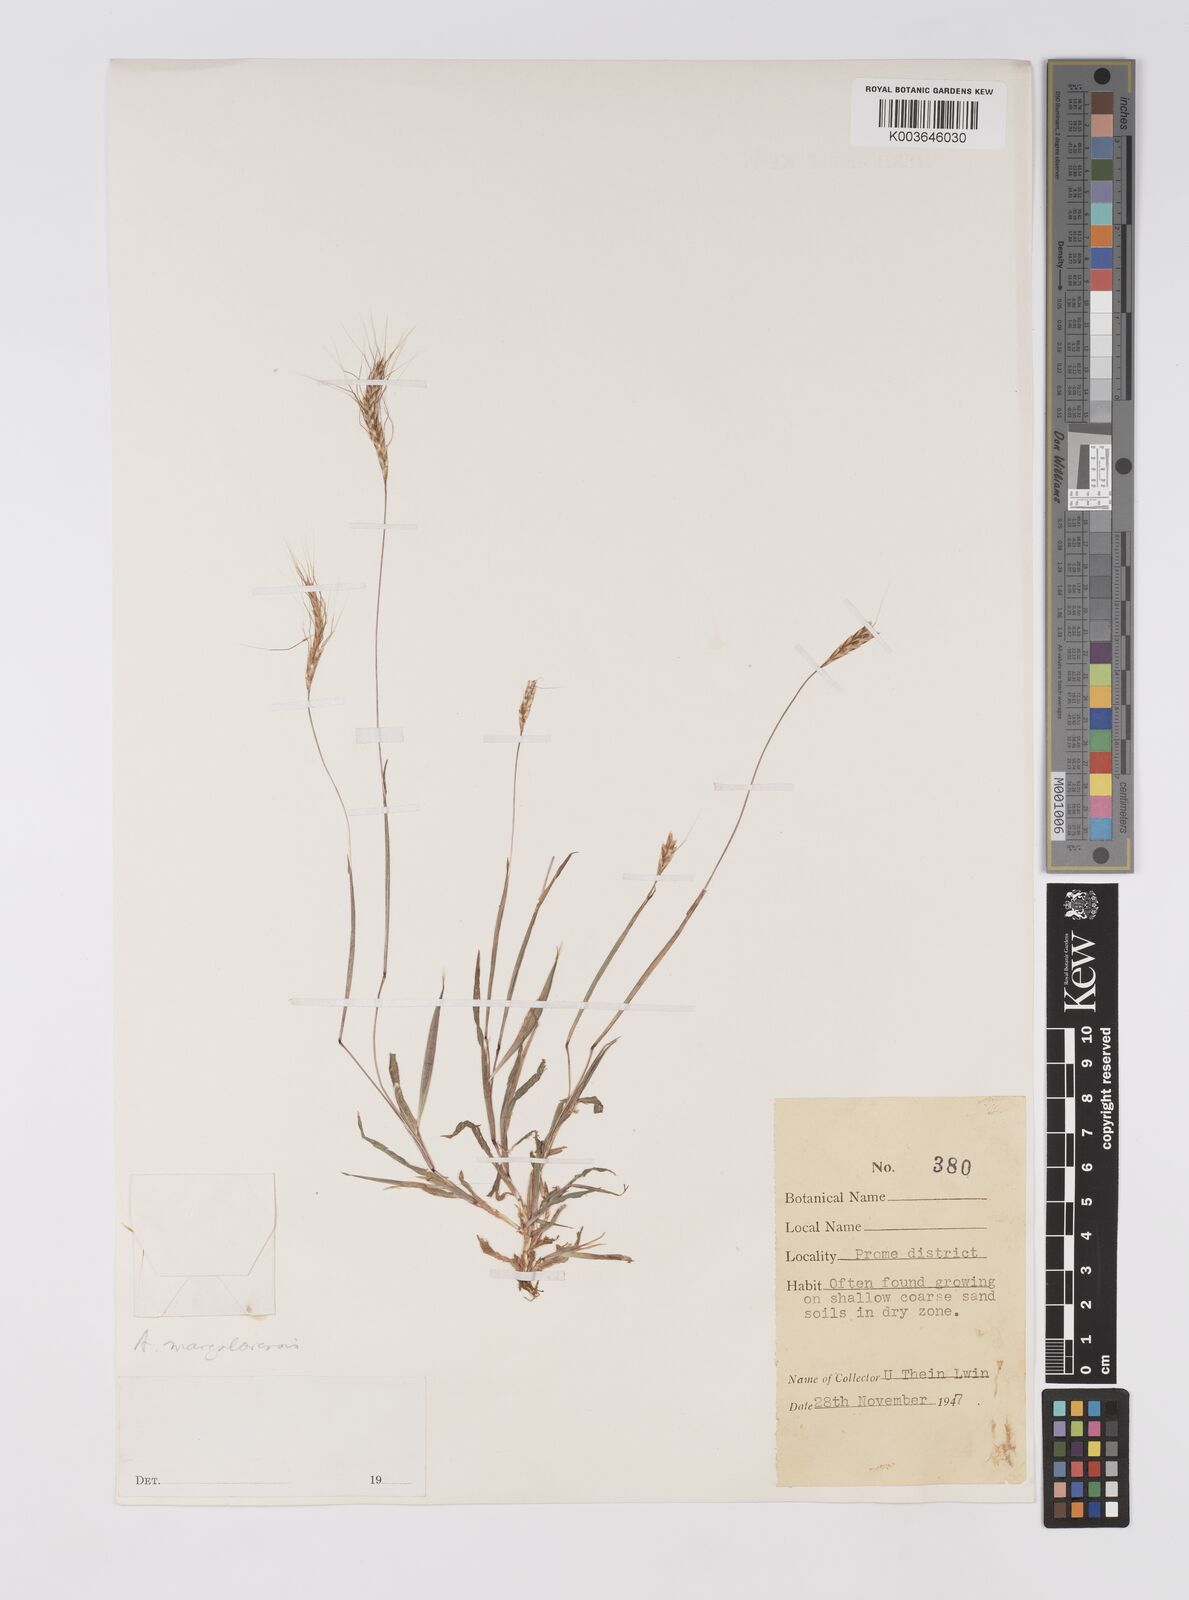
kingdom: Plantae
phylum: Tracheophyta
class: Liliopsida
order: Poales
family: Poaceae
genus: Apocopis
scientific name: Apocopis mangalorensis
